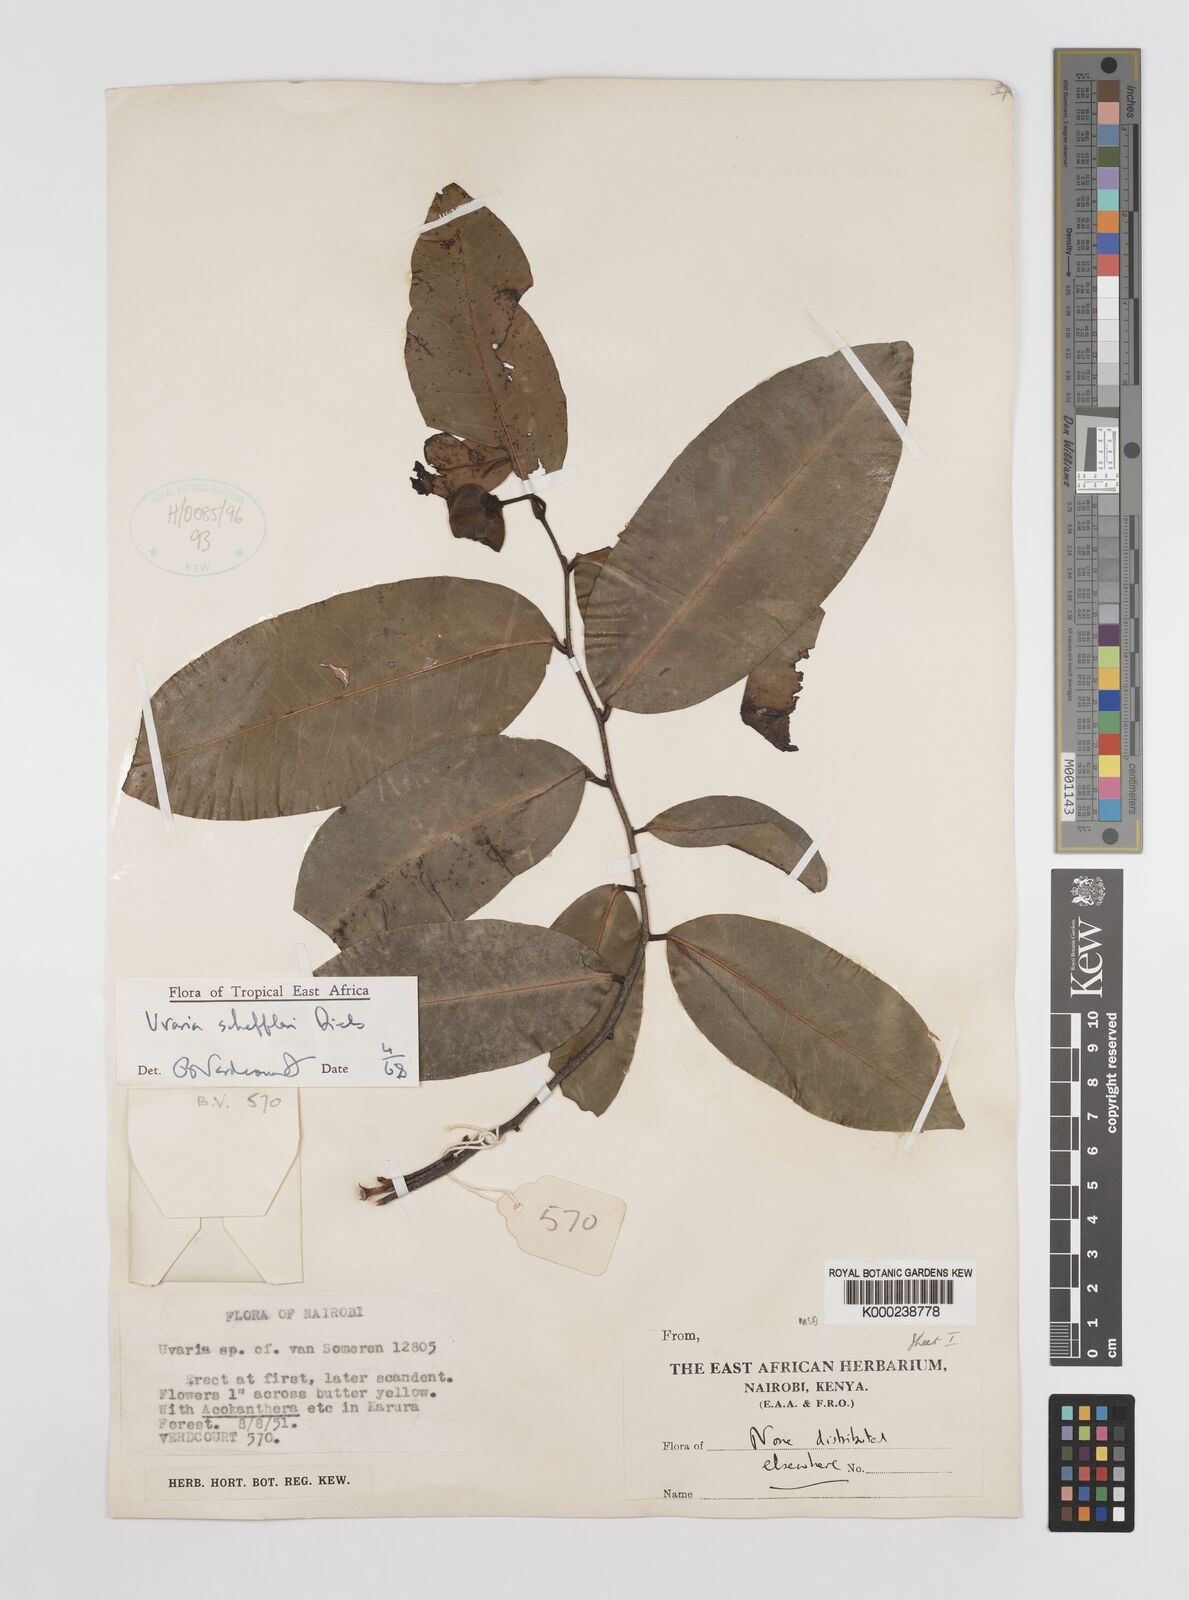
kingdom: Plantae
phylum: Tracheophyta
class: Magnoliopsida
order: Magnoliales
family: Annonaceae
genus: Uvaria
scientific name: Uvaria scheffleri
